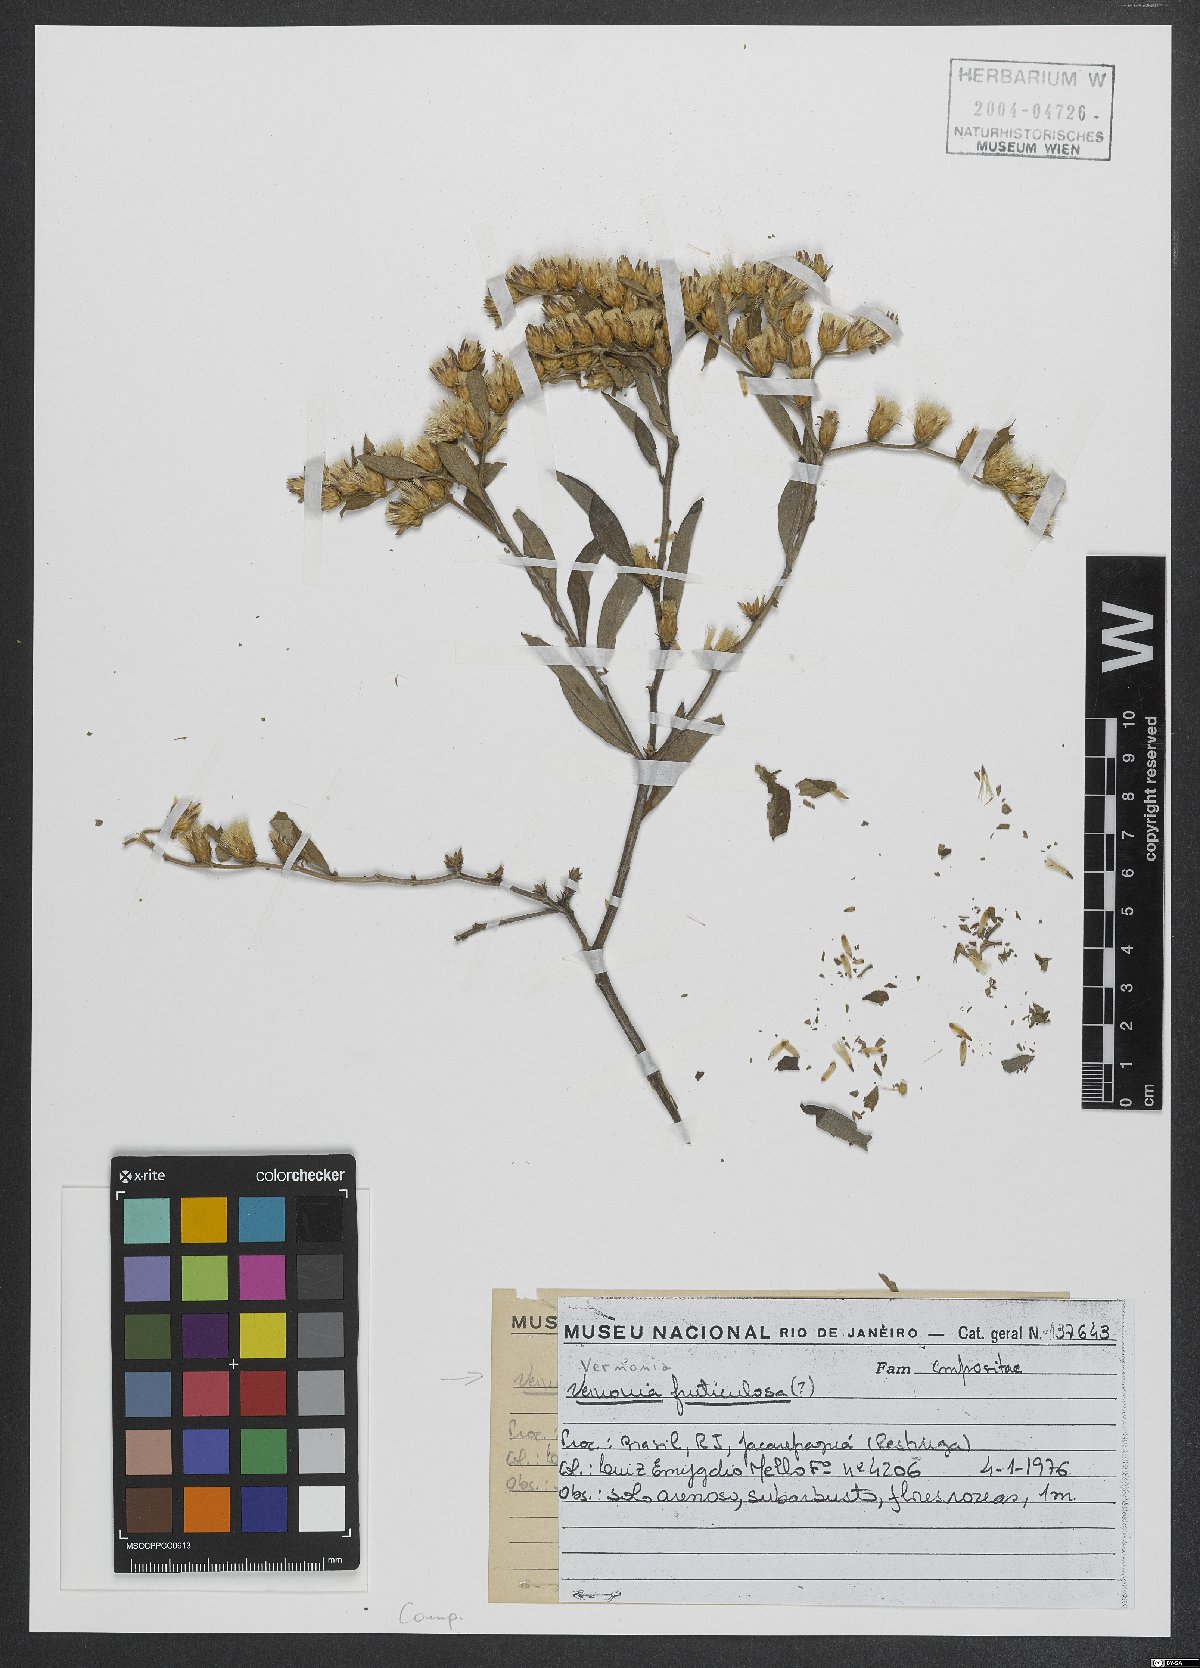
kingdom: Plantae
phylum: Tracheophyta
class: Magnoliopsida
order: Asterales
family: Asteraceae
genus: Lepidaploa
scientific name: Lepidaploa rufogrisea
